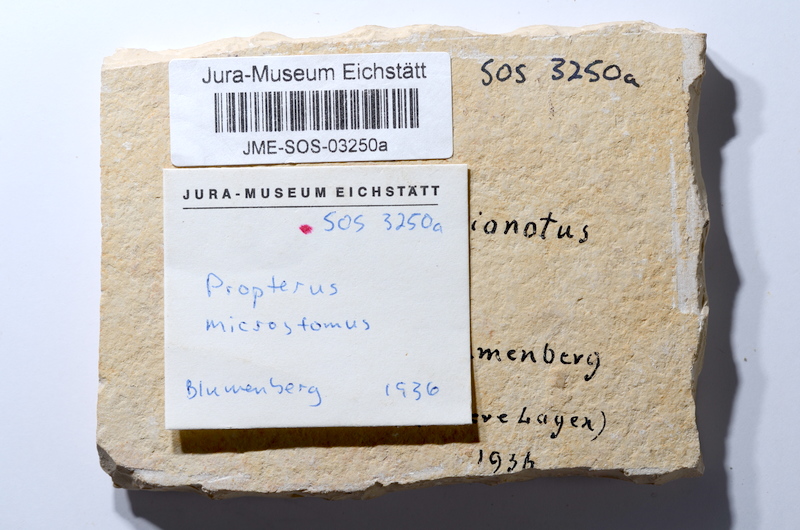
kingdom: Animalia
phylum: Chordata
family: Macrosemiidae
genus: Propterus
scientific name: Propterus microstomus
